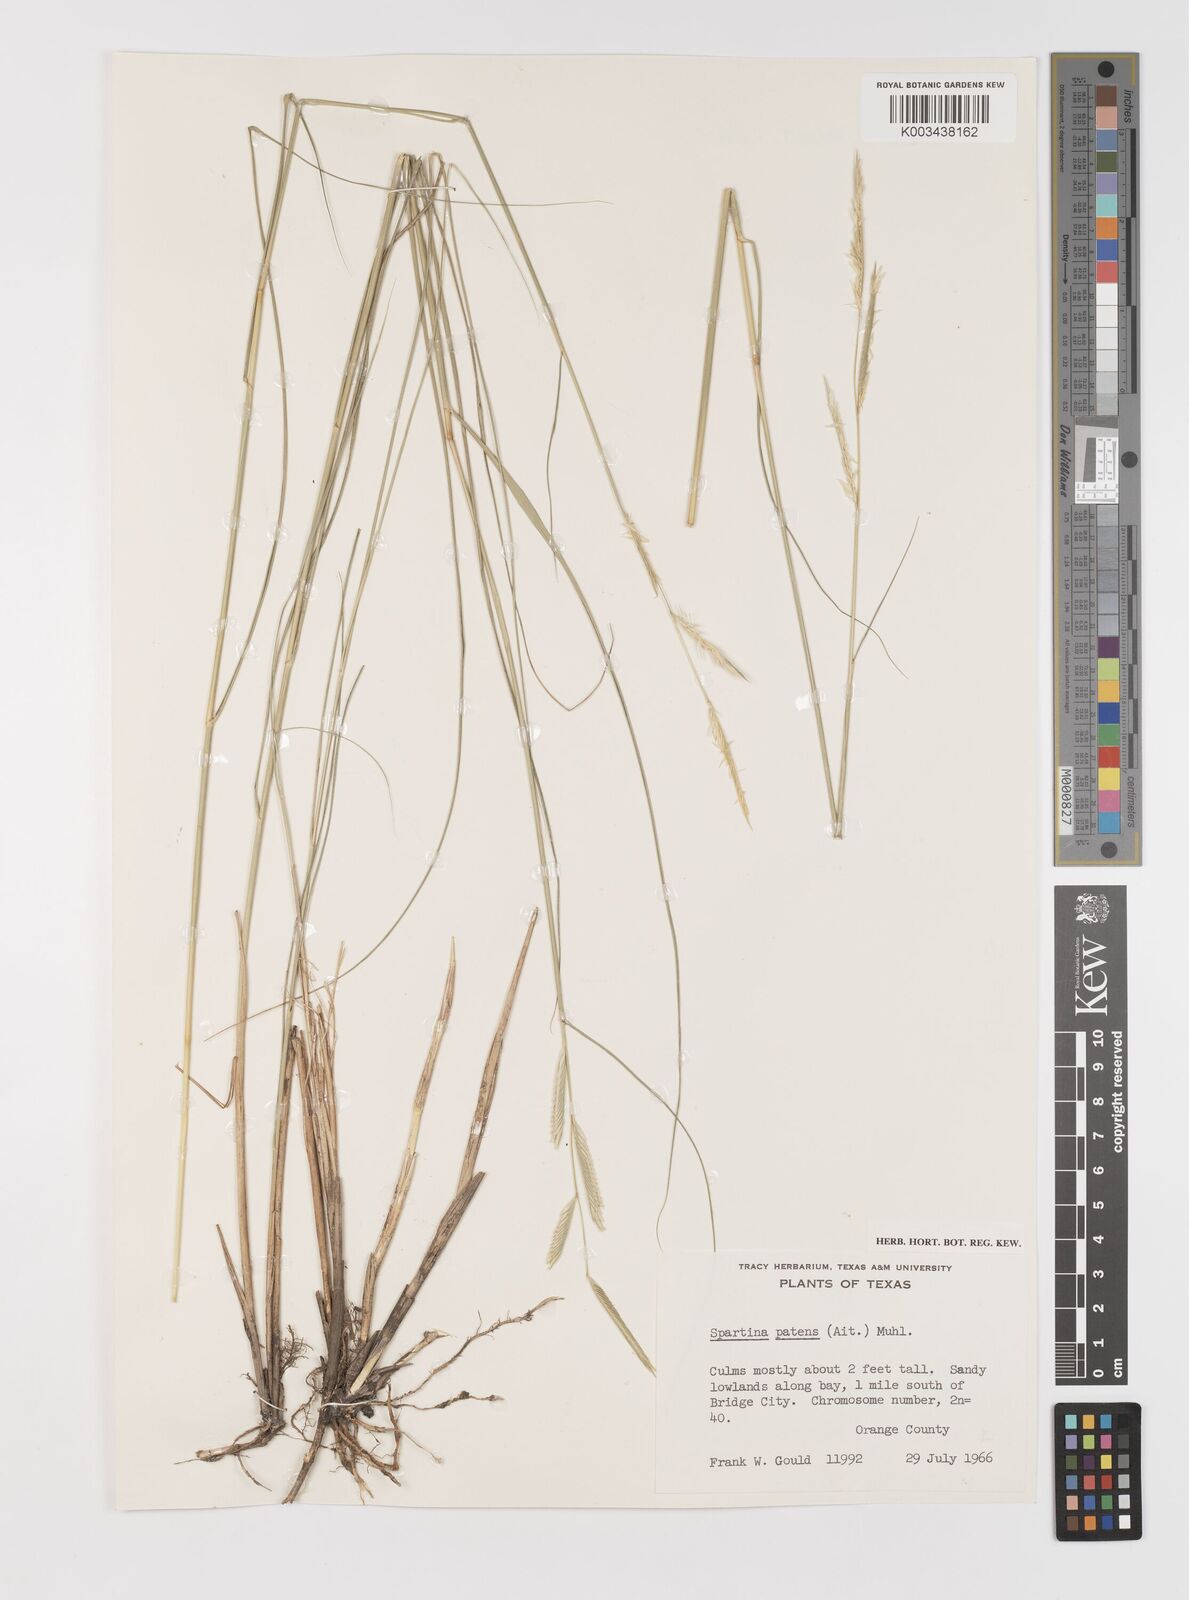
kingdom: Plantae
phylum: Tracheophyta
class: Liliopsida
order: Poales
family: Poaceae
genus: Sporobolus
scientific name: Sporobolus pumilus
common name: Highwater grass
